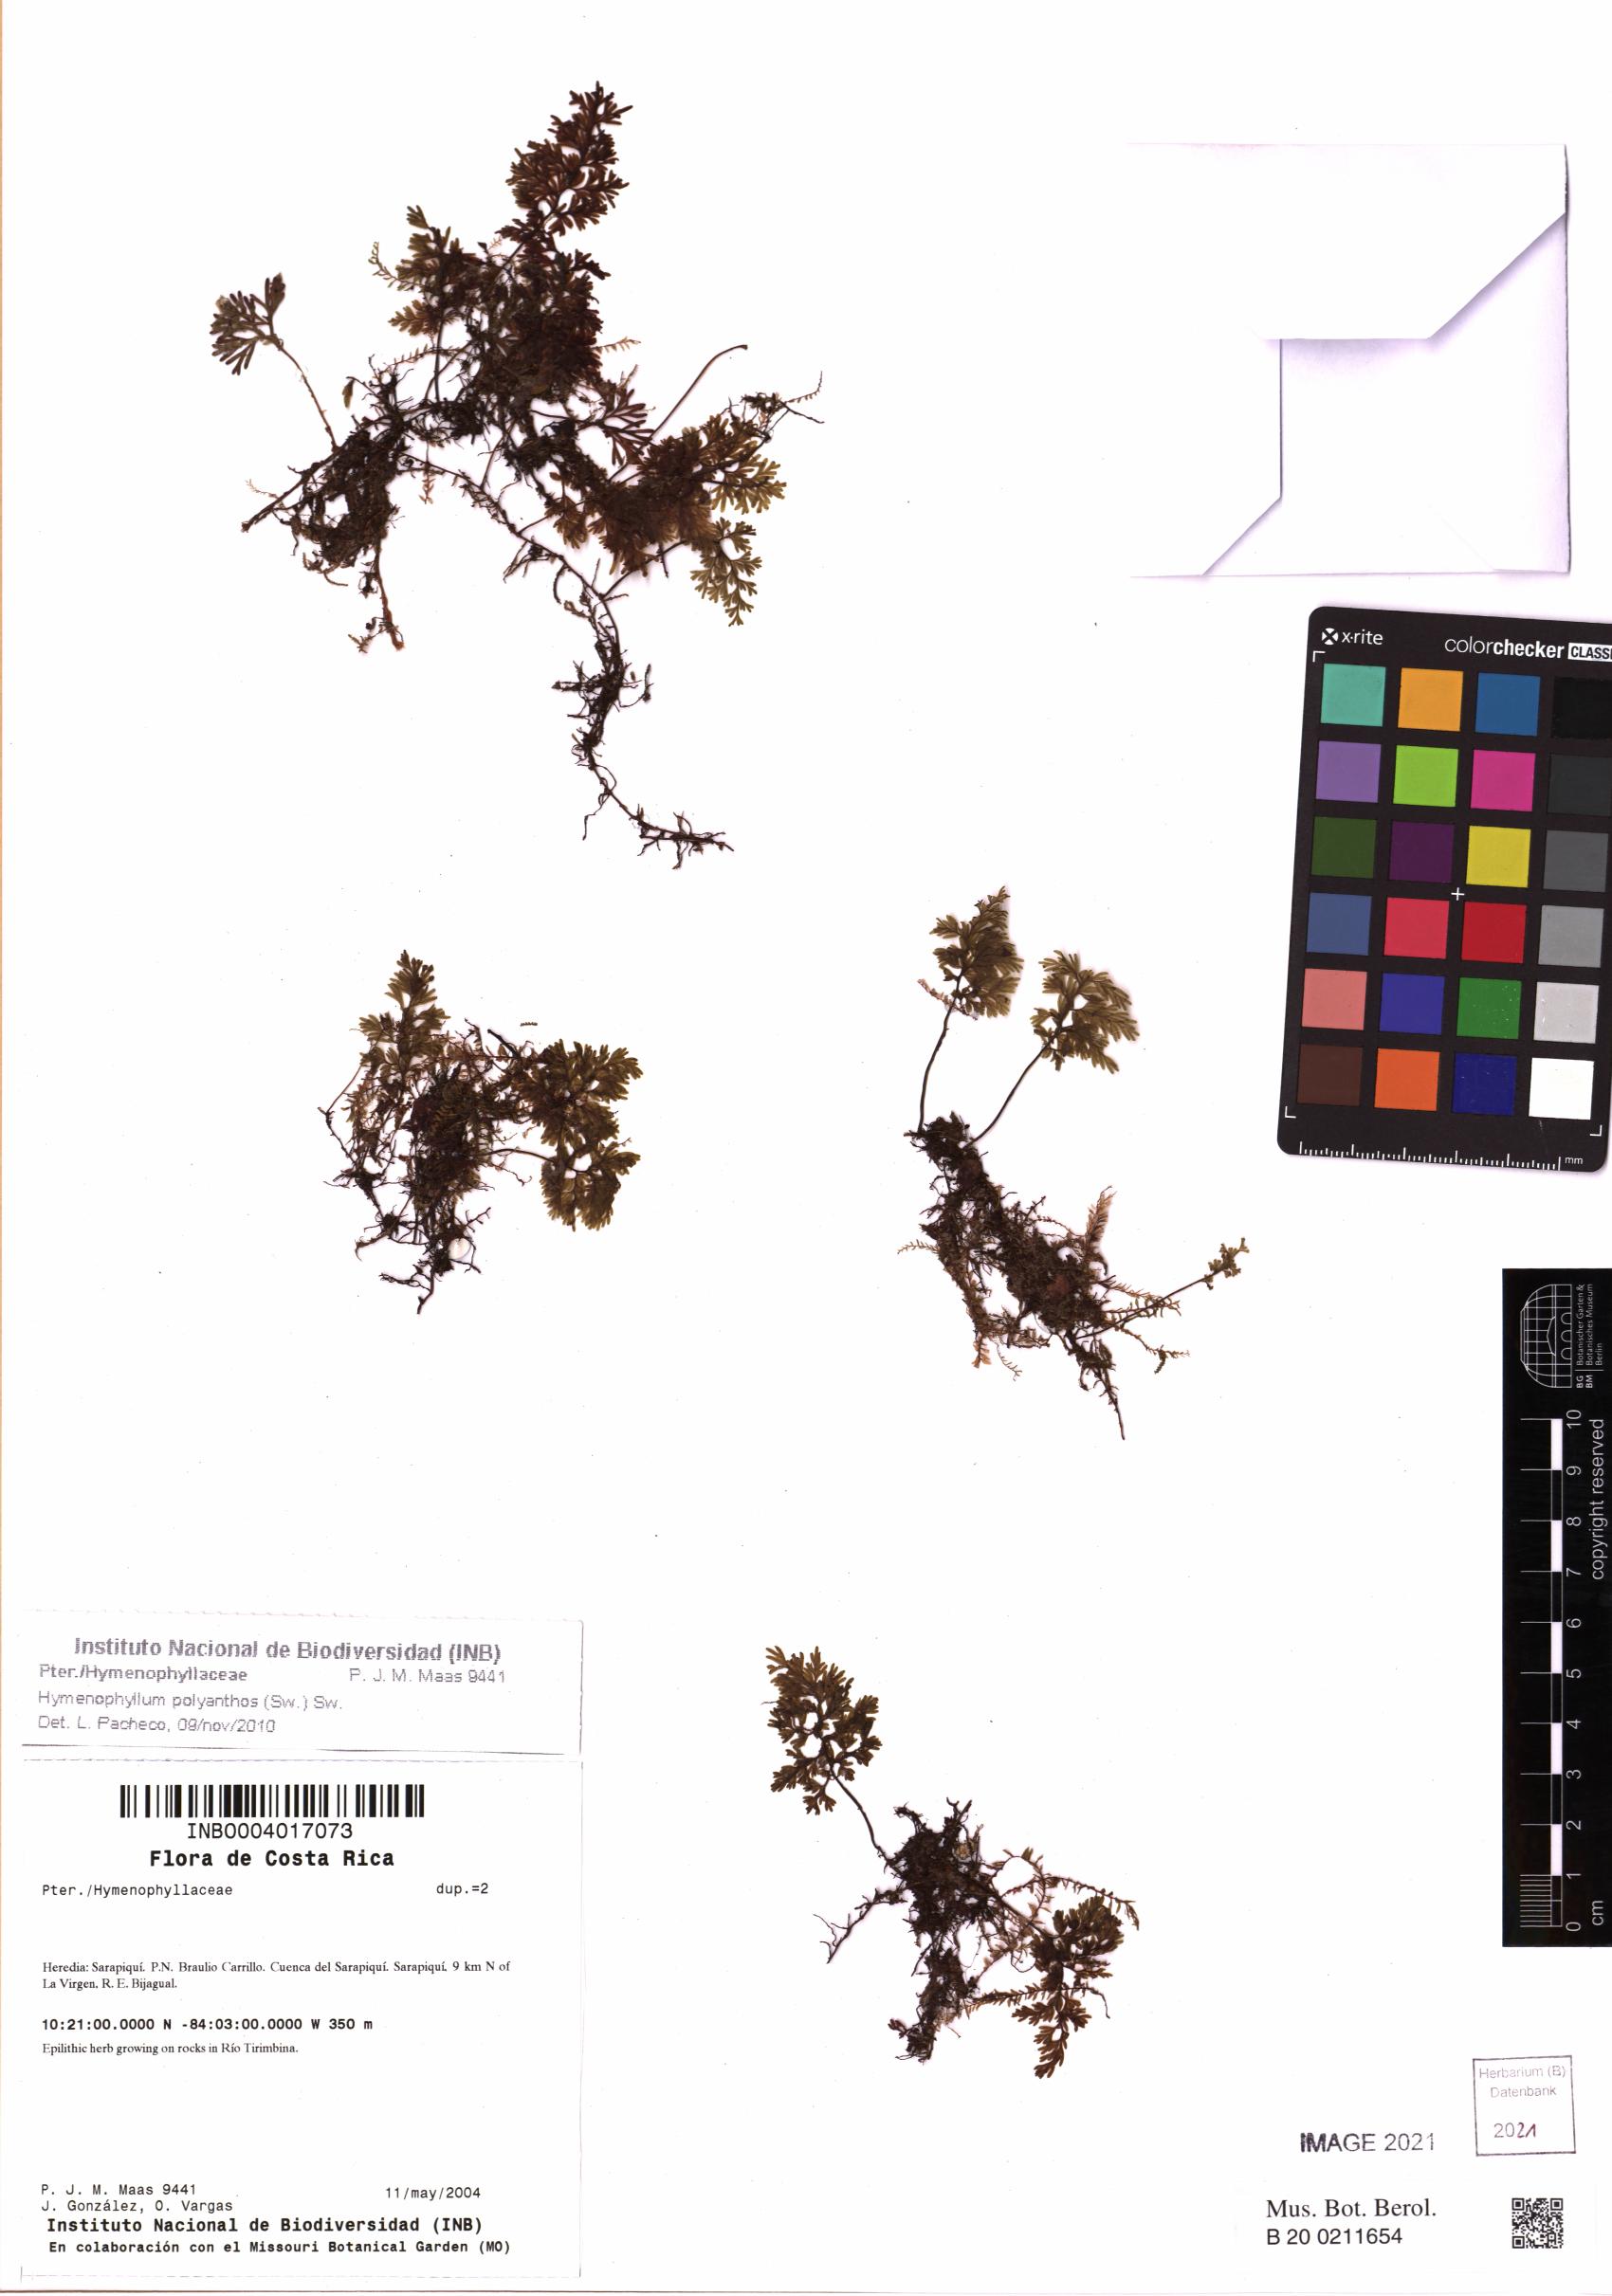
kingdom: Plantae
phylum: Tracheophyta
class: Polypodiopsida
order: Hymenophyllales
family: Hymenophyllaceae
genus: Hymenophyllum
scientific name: Hymenophyllum polyanthos
